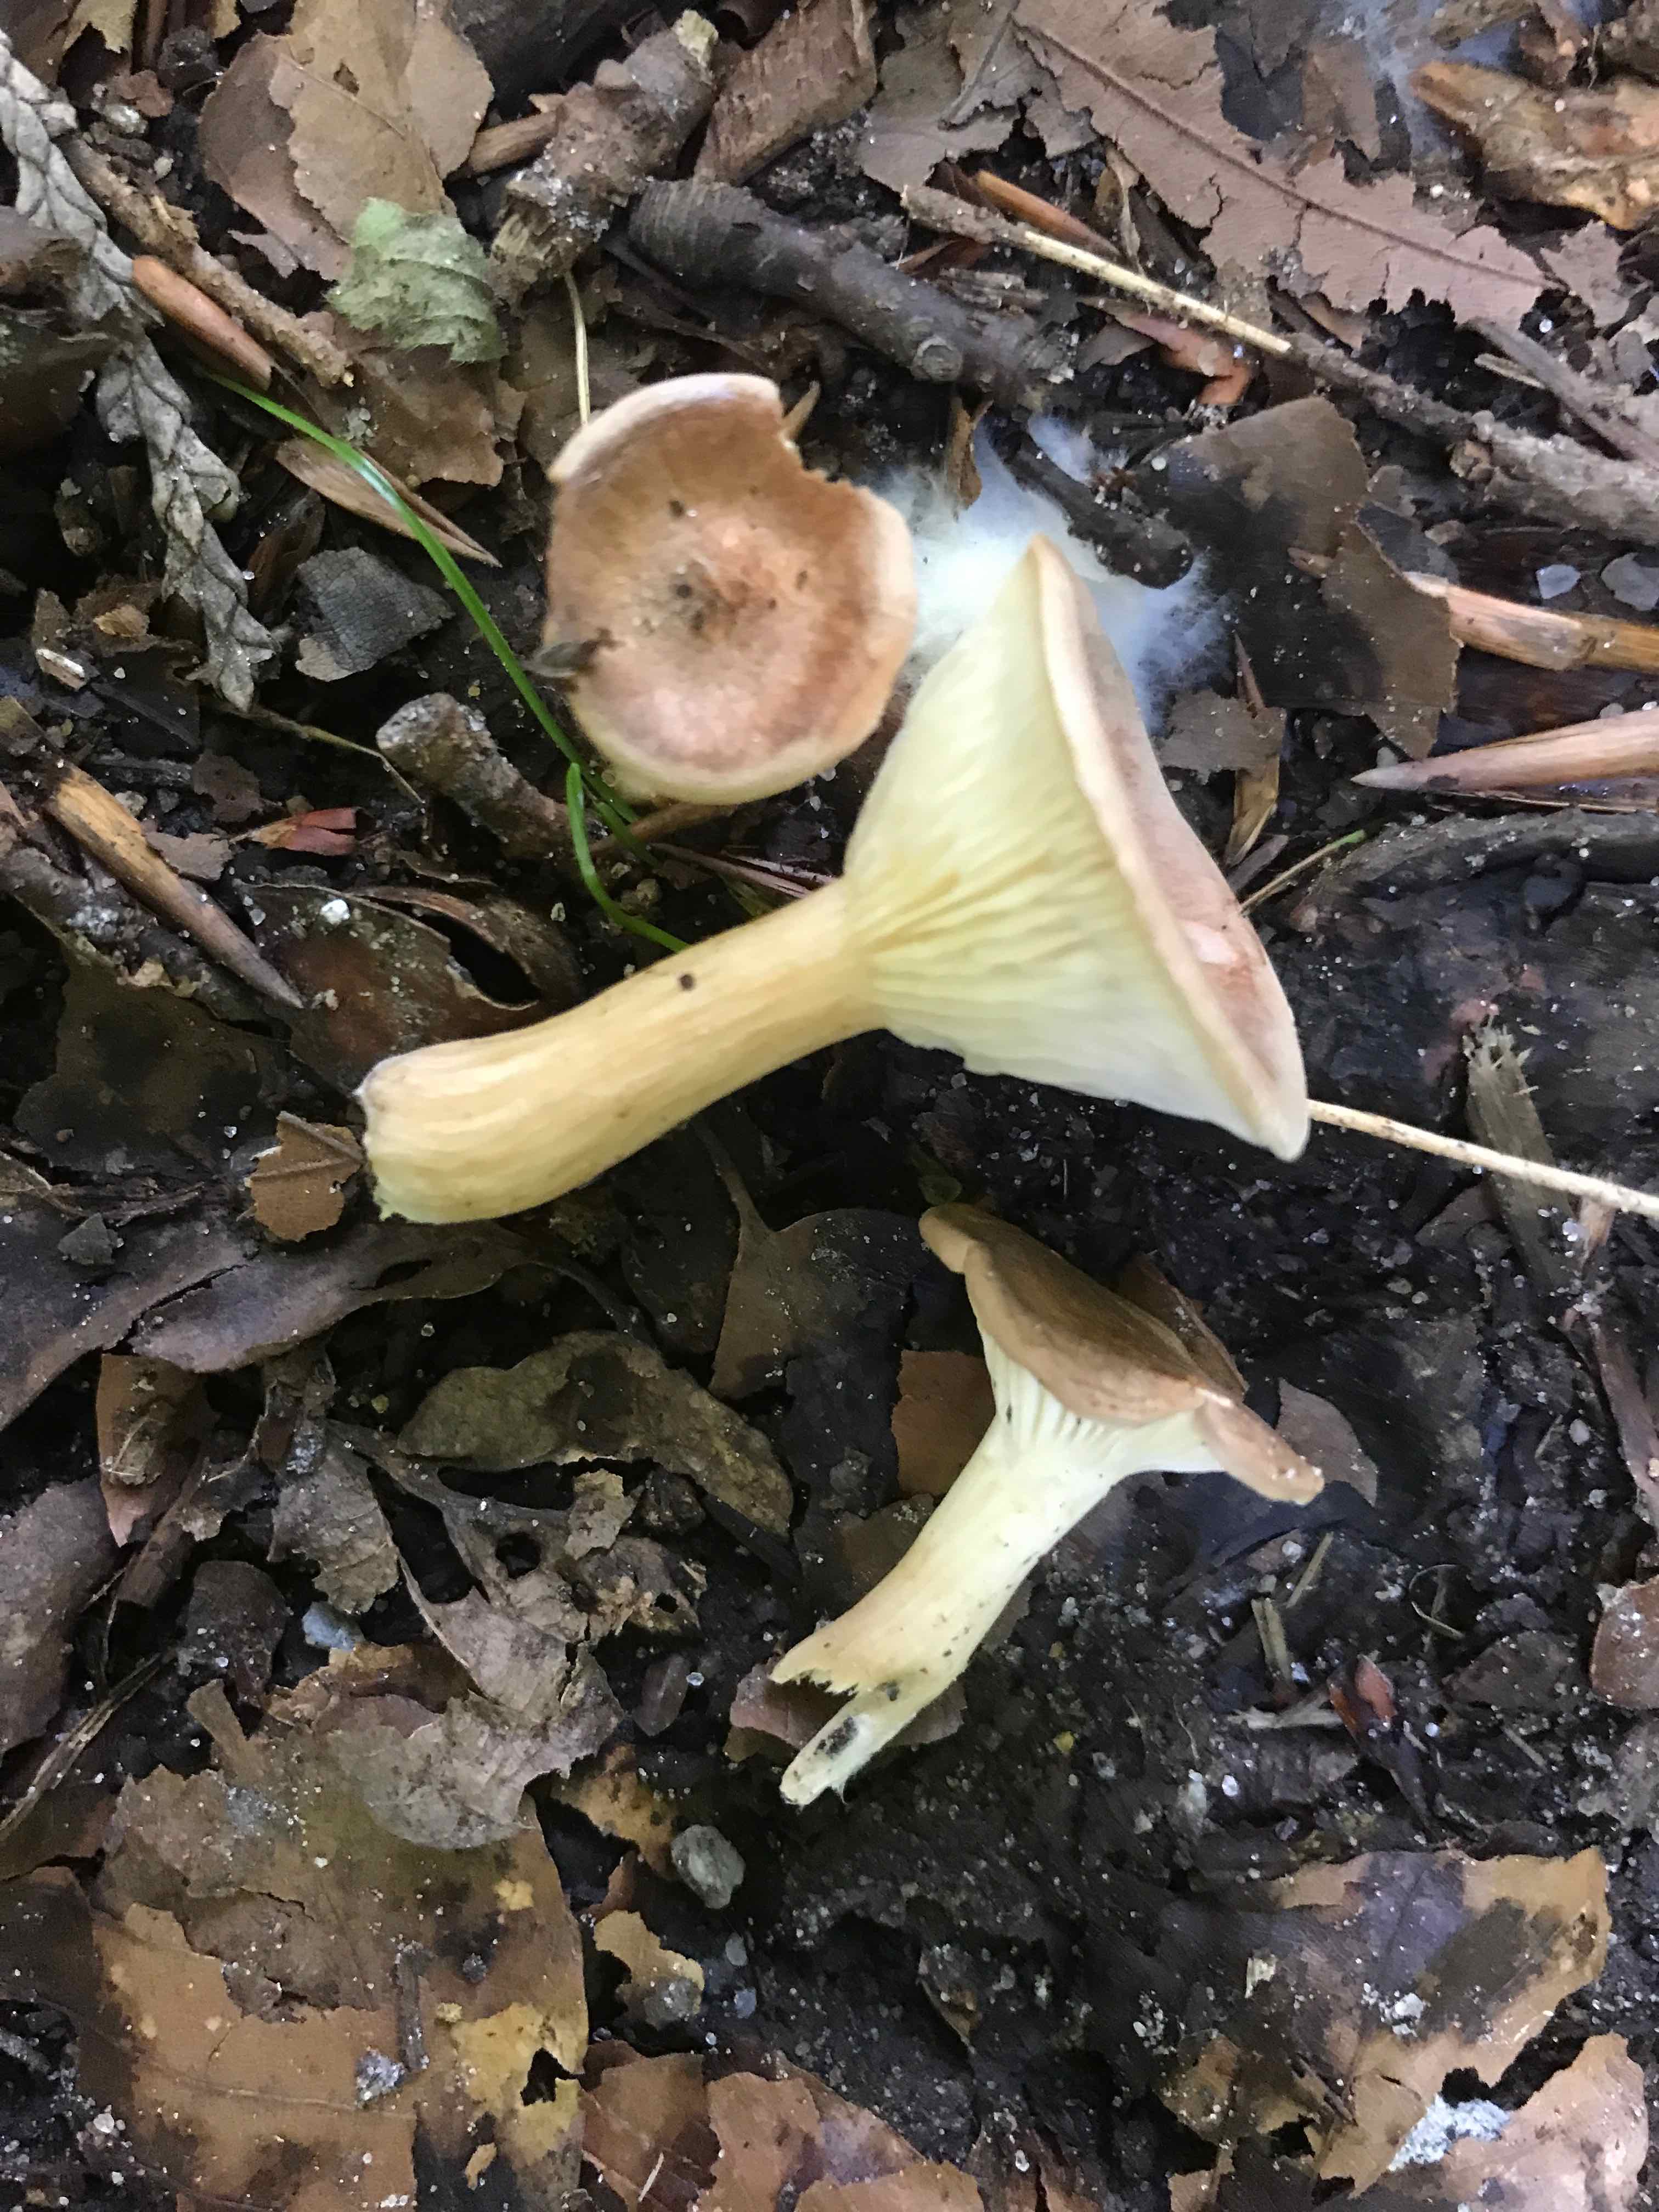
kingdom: Fungi
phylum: Basidiomycota
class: Agaricomycetes
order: Agaricales
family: Tricholomataceae
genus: Infundibulicybe
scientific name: Infundibulicybe gibba
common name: almindelig tragthat
